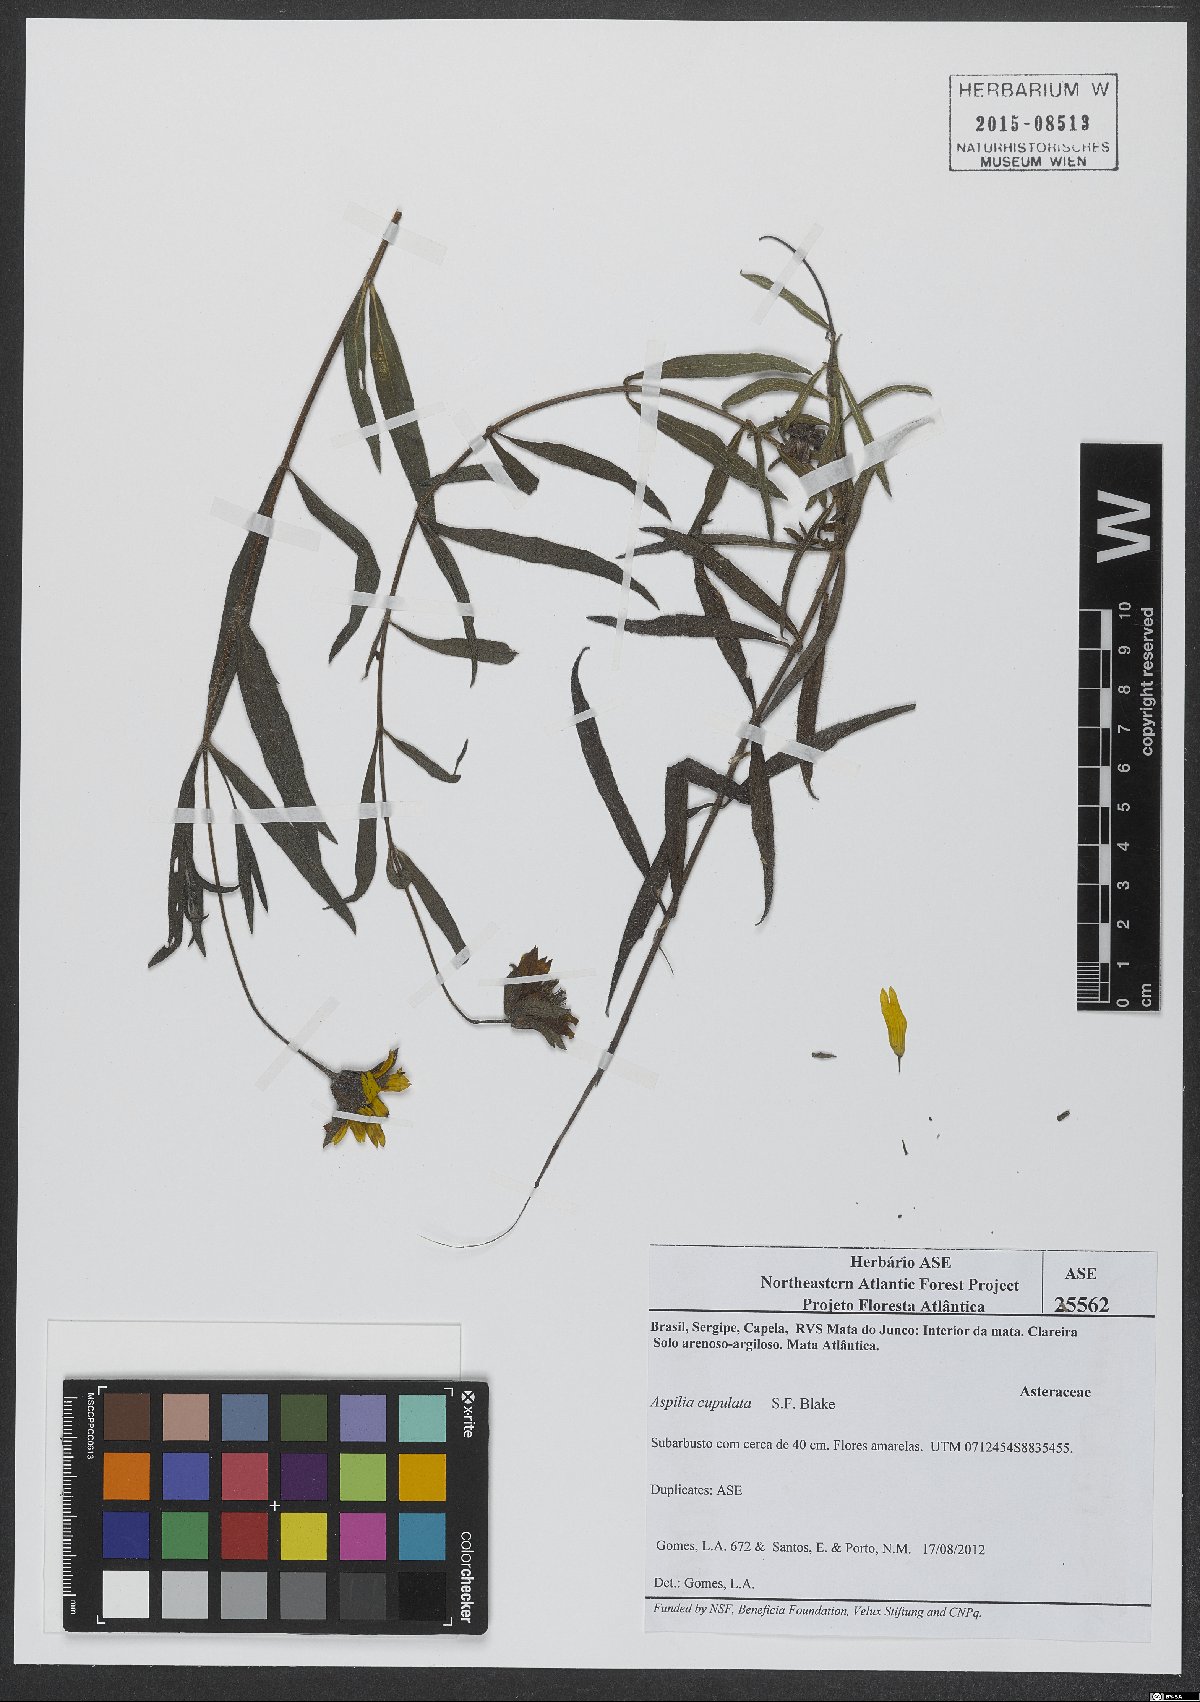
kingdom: Plantae
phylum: Tracheophyta
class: Magnoliopsida
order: Asterales
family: Asteraceae
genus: Wedelia
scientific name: Wedelia angustifolia
